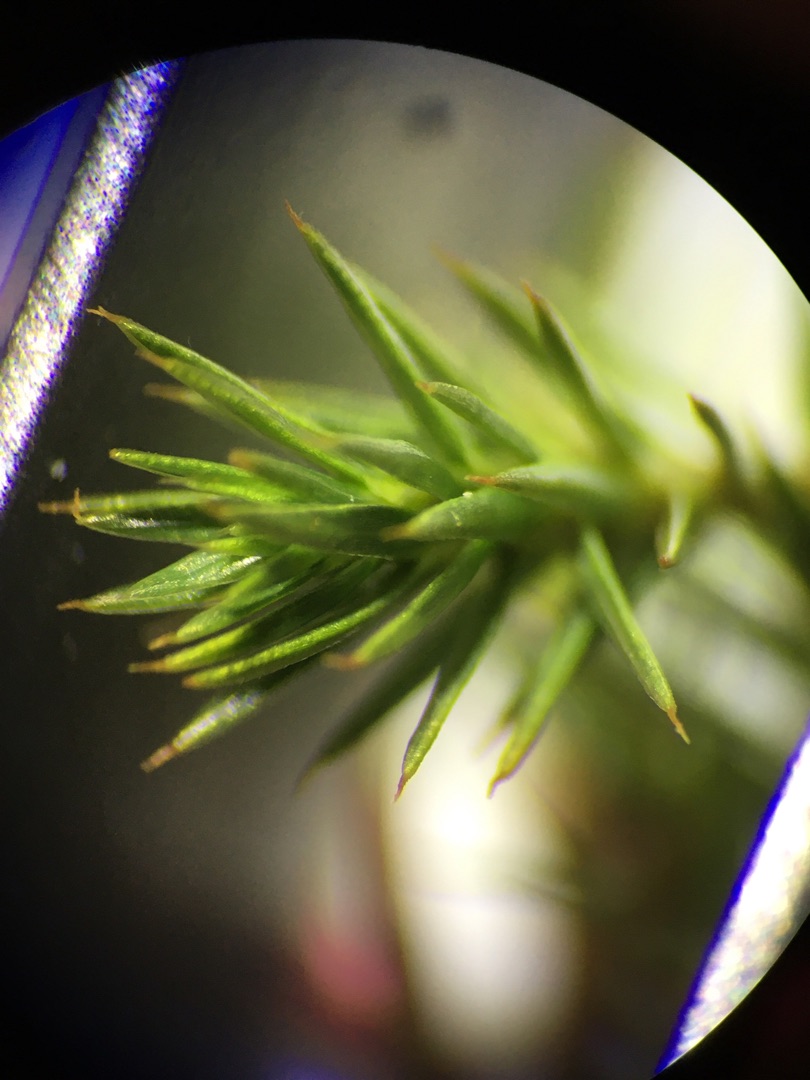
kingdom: Plantae
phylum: Bryophyta
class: Polytrichopsida
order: Polytrichales
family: Polytrichaceae
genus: Polytrichum
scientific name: Polytrichum strictum
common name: Filtstænglet jomfruhår
